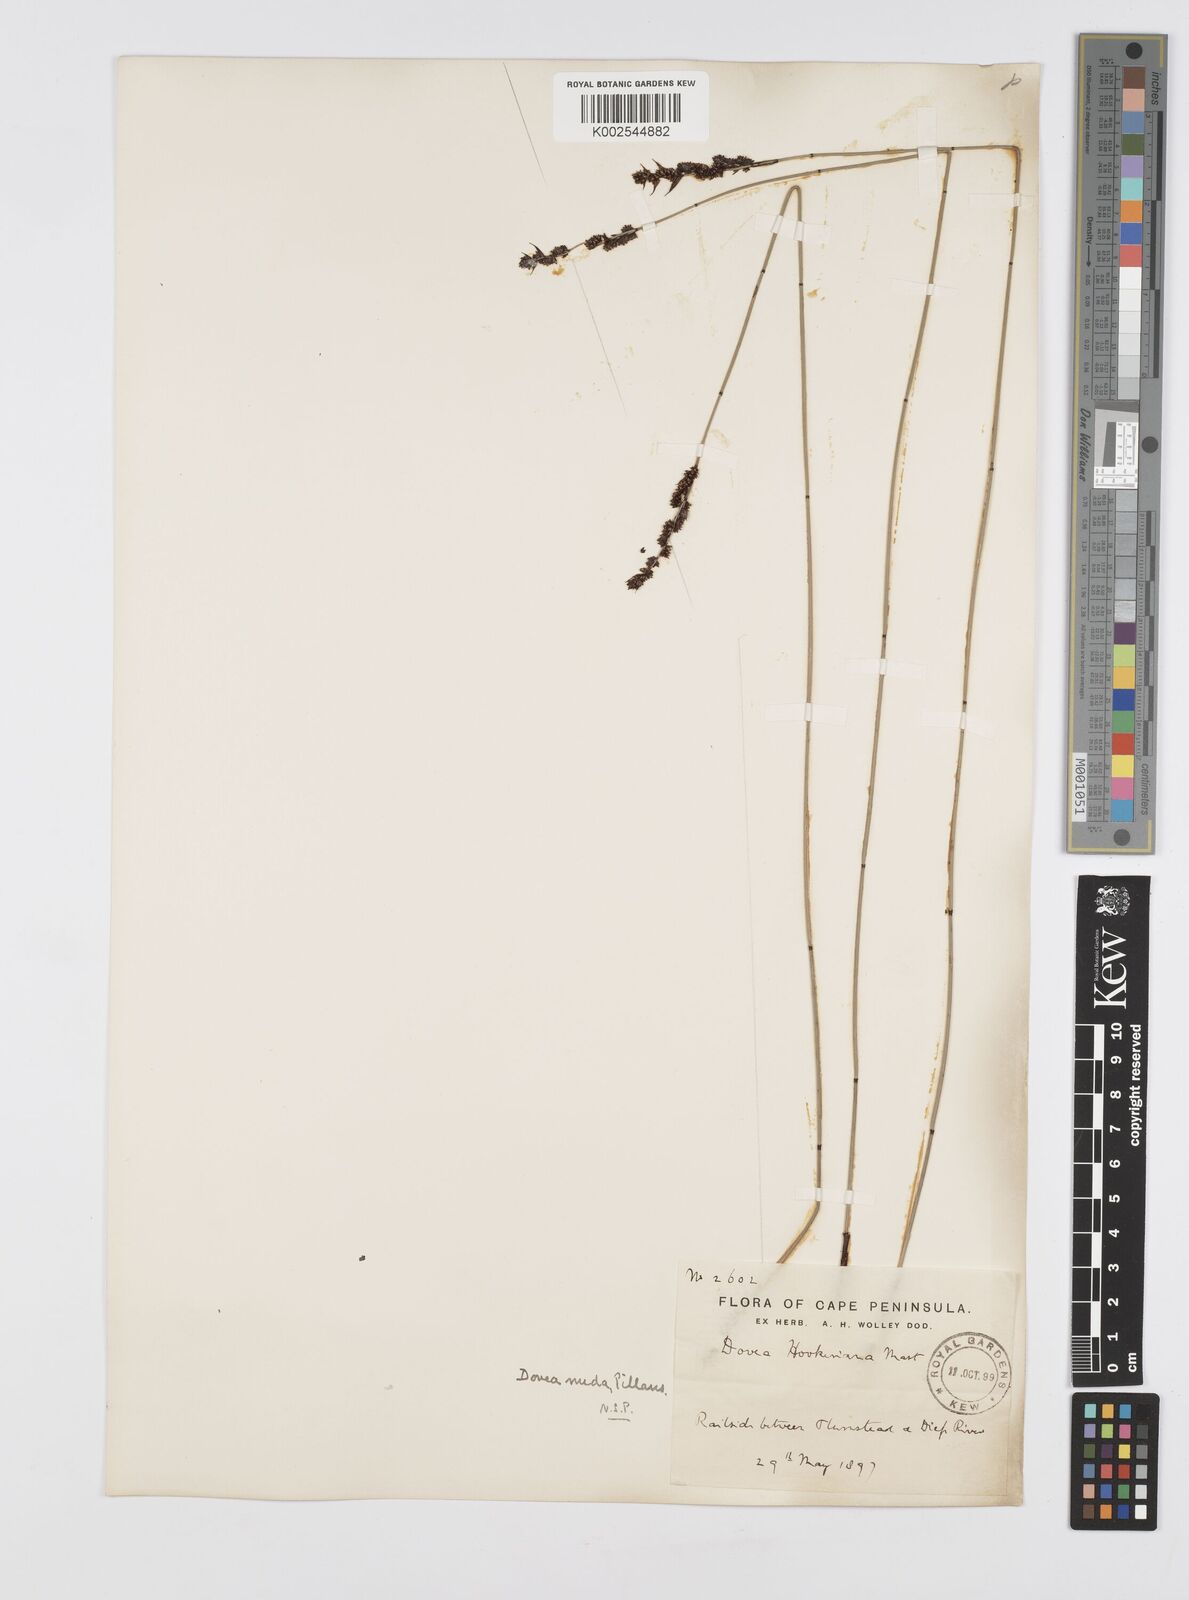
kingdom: Plantae
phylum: Tracheophyta
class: Liliopsida
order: Poales
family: Restionaceae
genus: Elegia
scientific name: Elegia nuda
